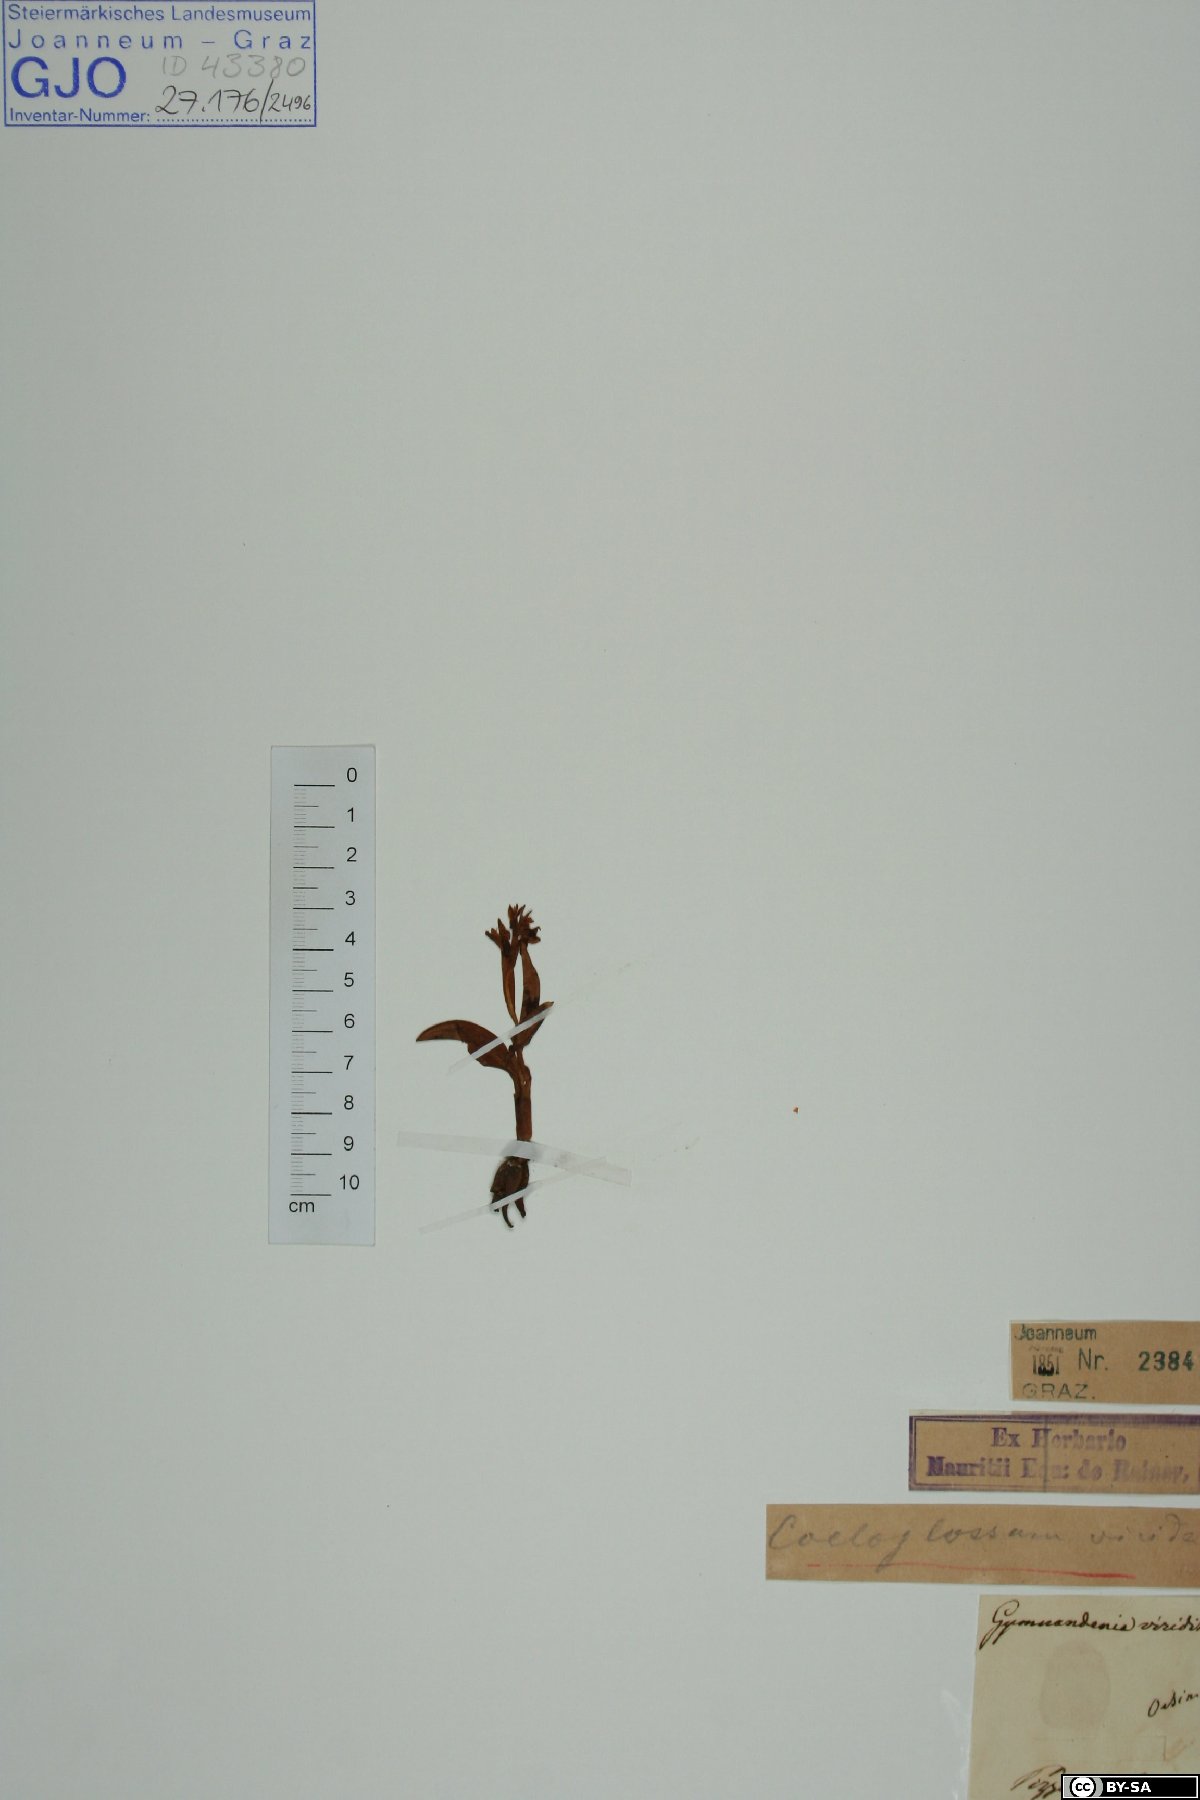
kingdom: Plantae
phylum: Tracheophyta
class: Liliopsida
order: Asparagales
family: Orchidaceae
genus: Dactylorhiza
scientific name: Dactylorhiza viridis
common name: Longbract frog orchid
